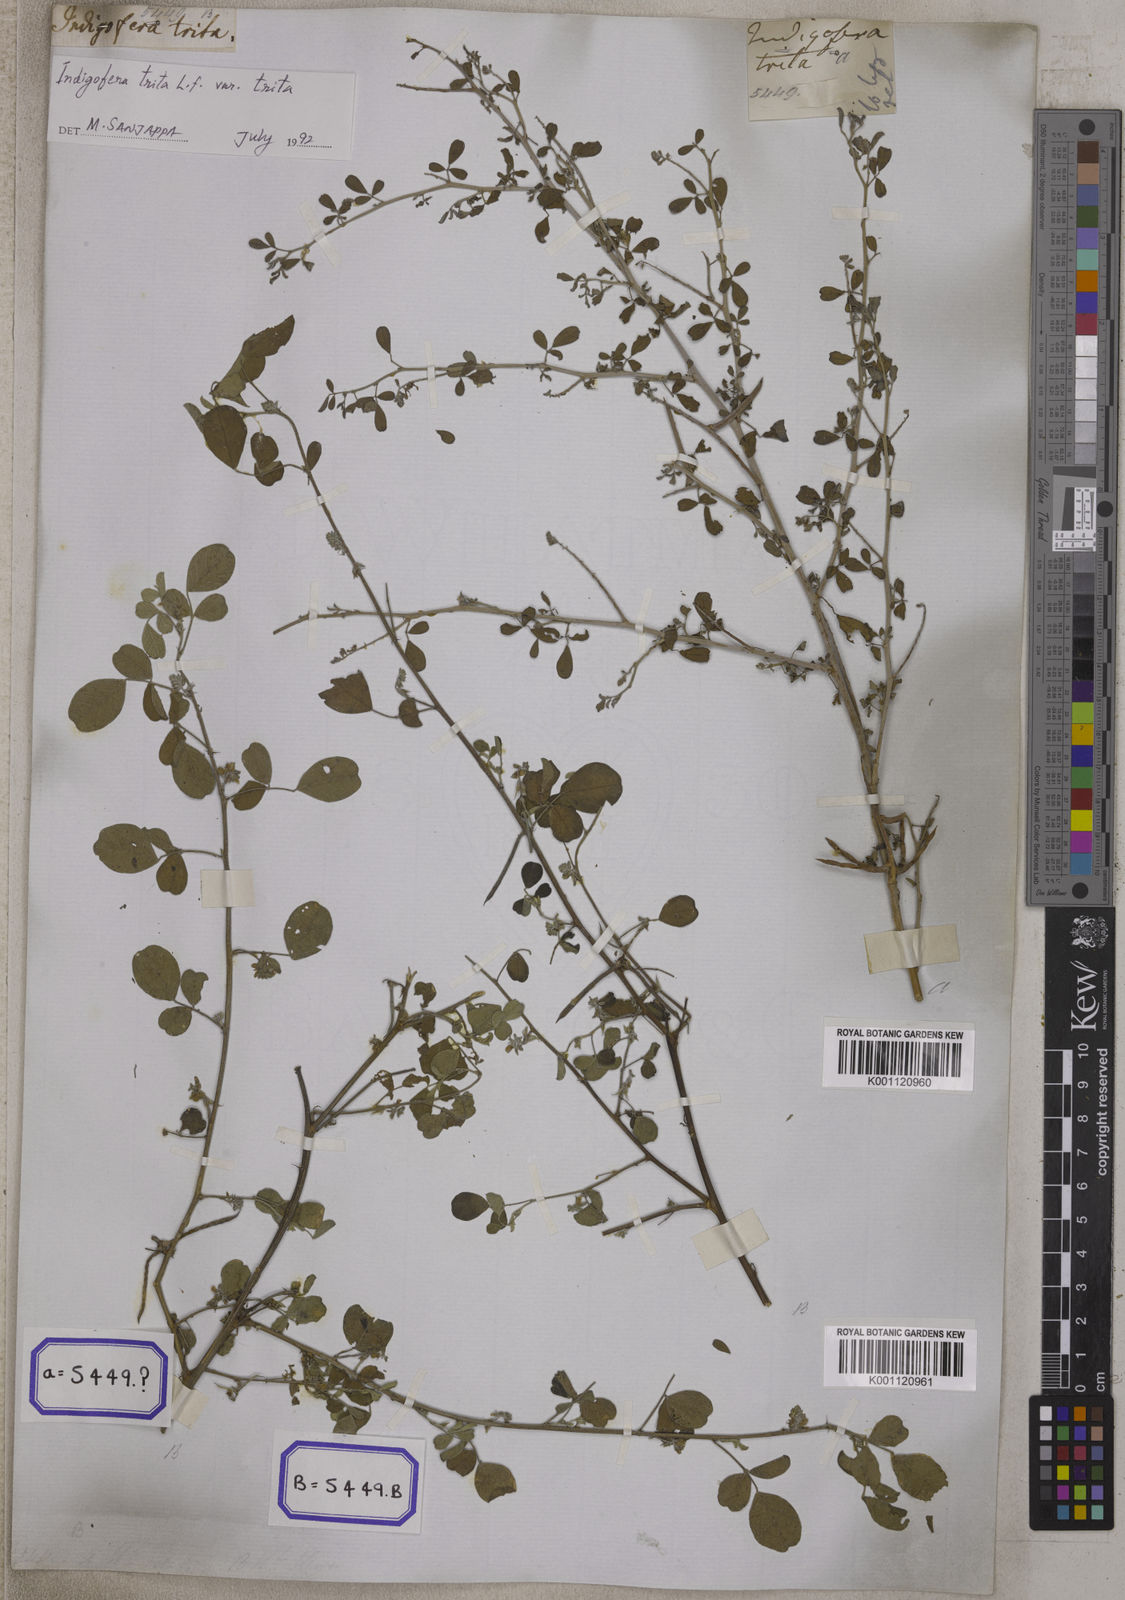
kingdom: Plantae
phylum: Tracheophyta
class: Magnoliopsida
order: Fabales
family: Fabaceae
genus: Indigofera
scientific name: Indigofera trita
